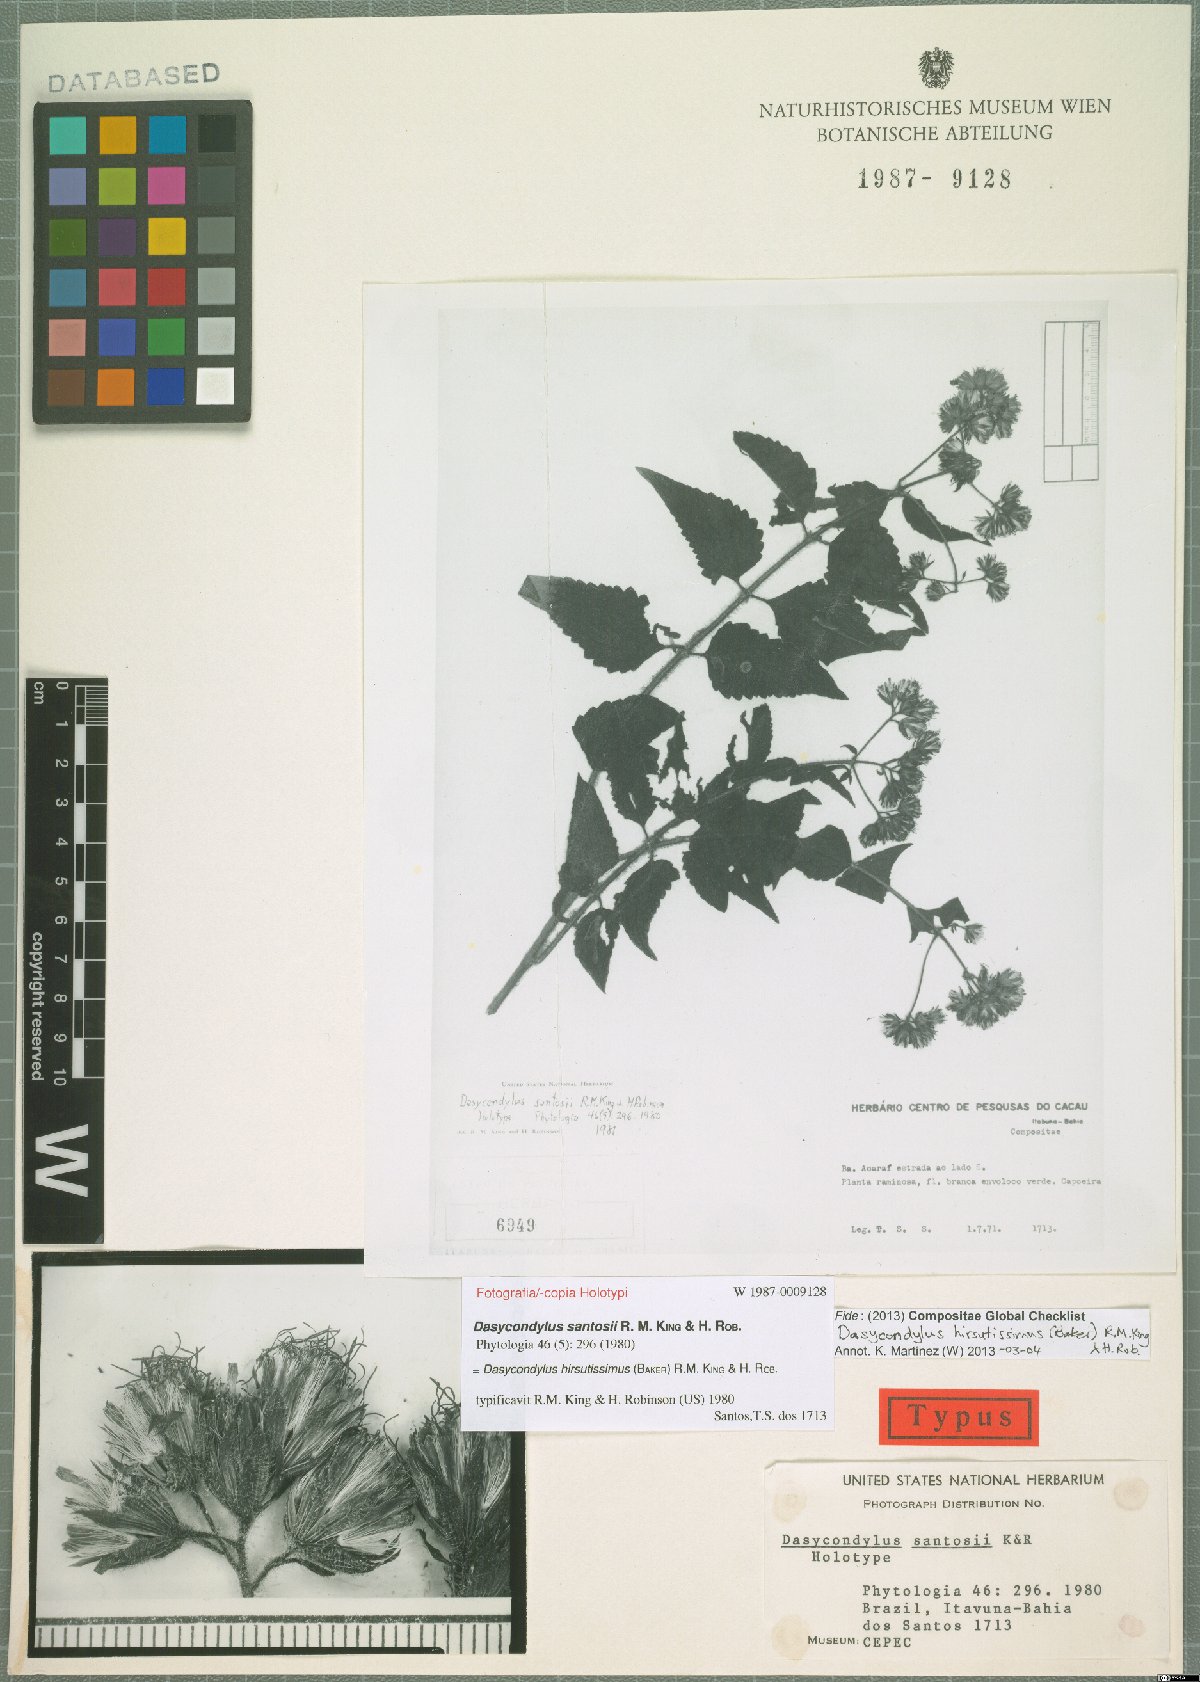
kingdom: Plantae
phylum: Tracheophyta
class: Magnoliopsida
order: Asterales
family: Asteraceae
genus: Dasycondylus
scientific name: Dasycondylus hirsutissimus
